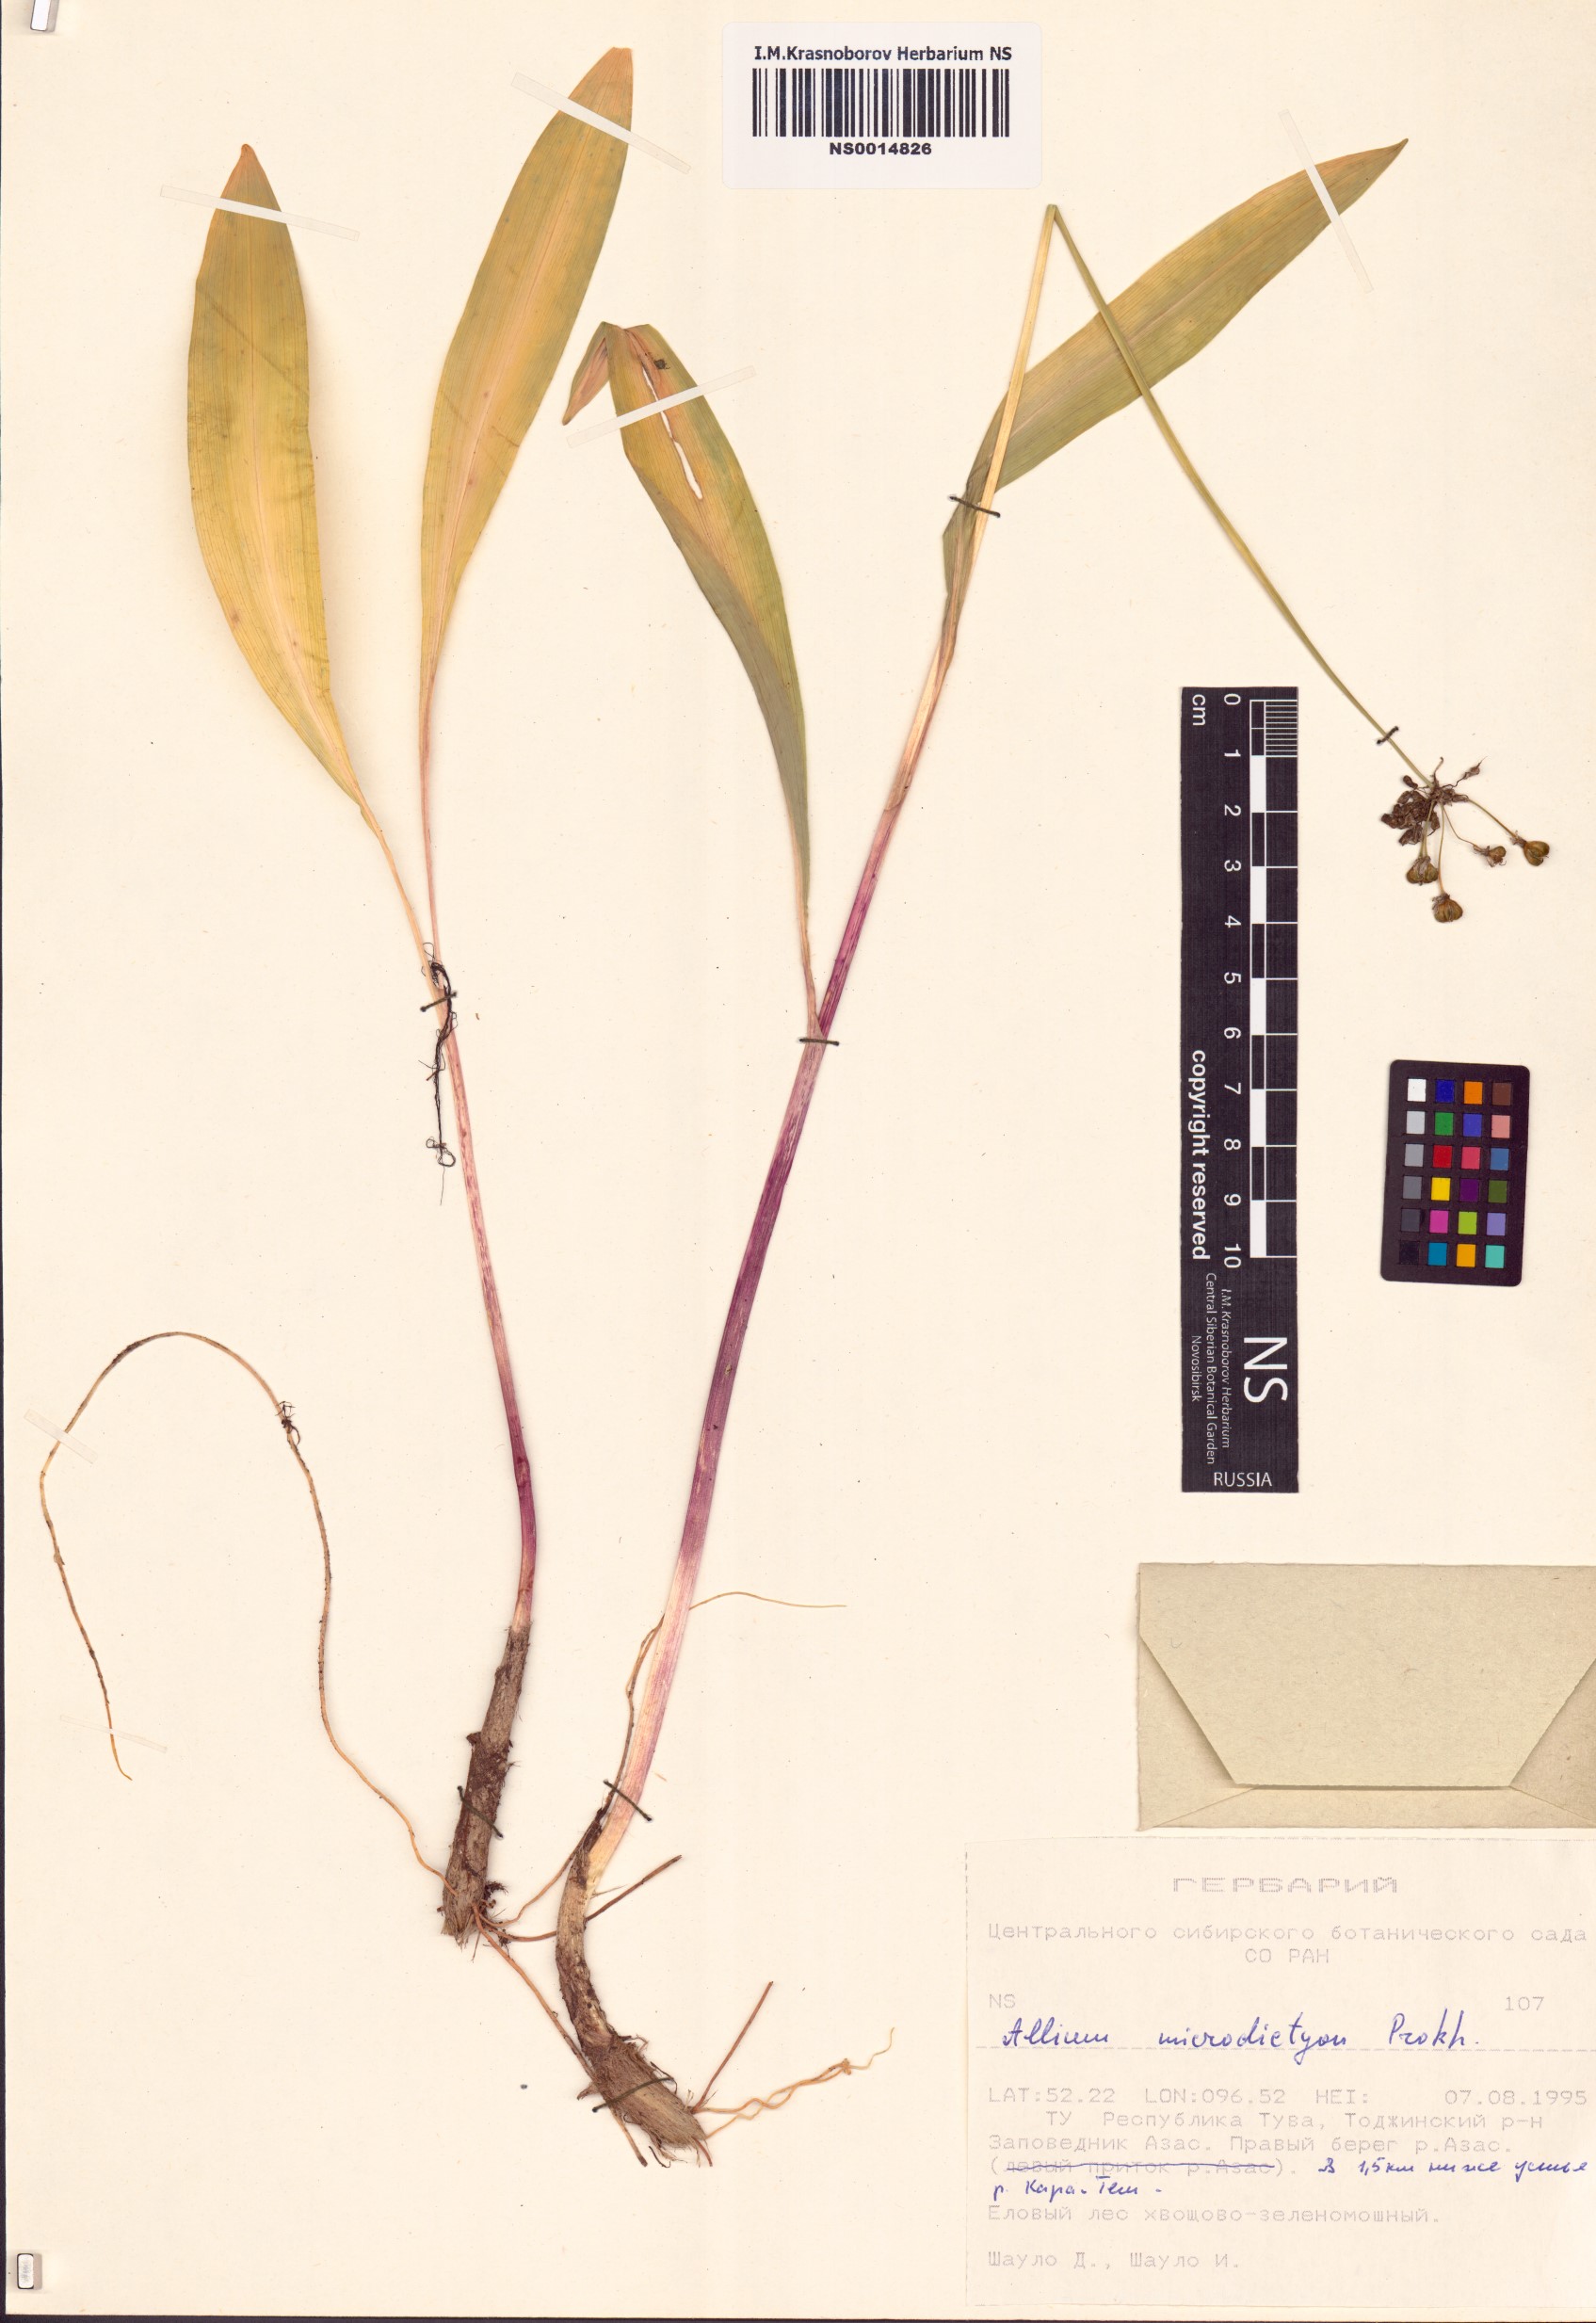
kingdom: Plantae
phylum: Tracheophyta
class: Liliopsida
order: Asparagales
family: Amaryllidaceae
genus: Allium
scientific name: Allium microdictyon
